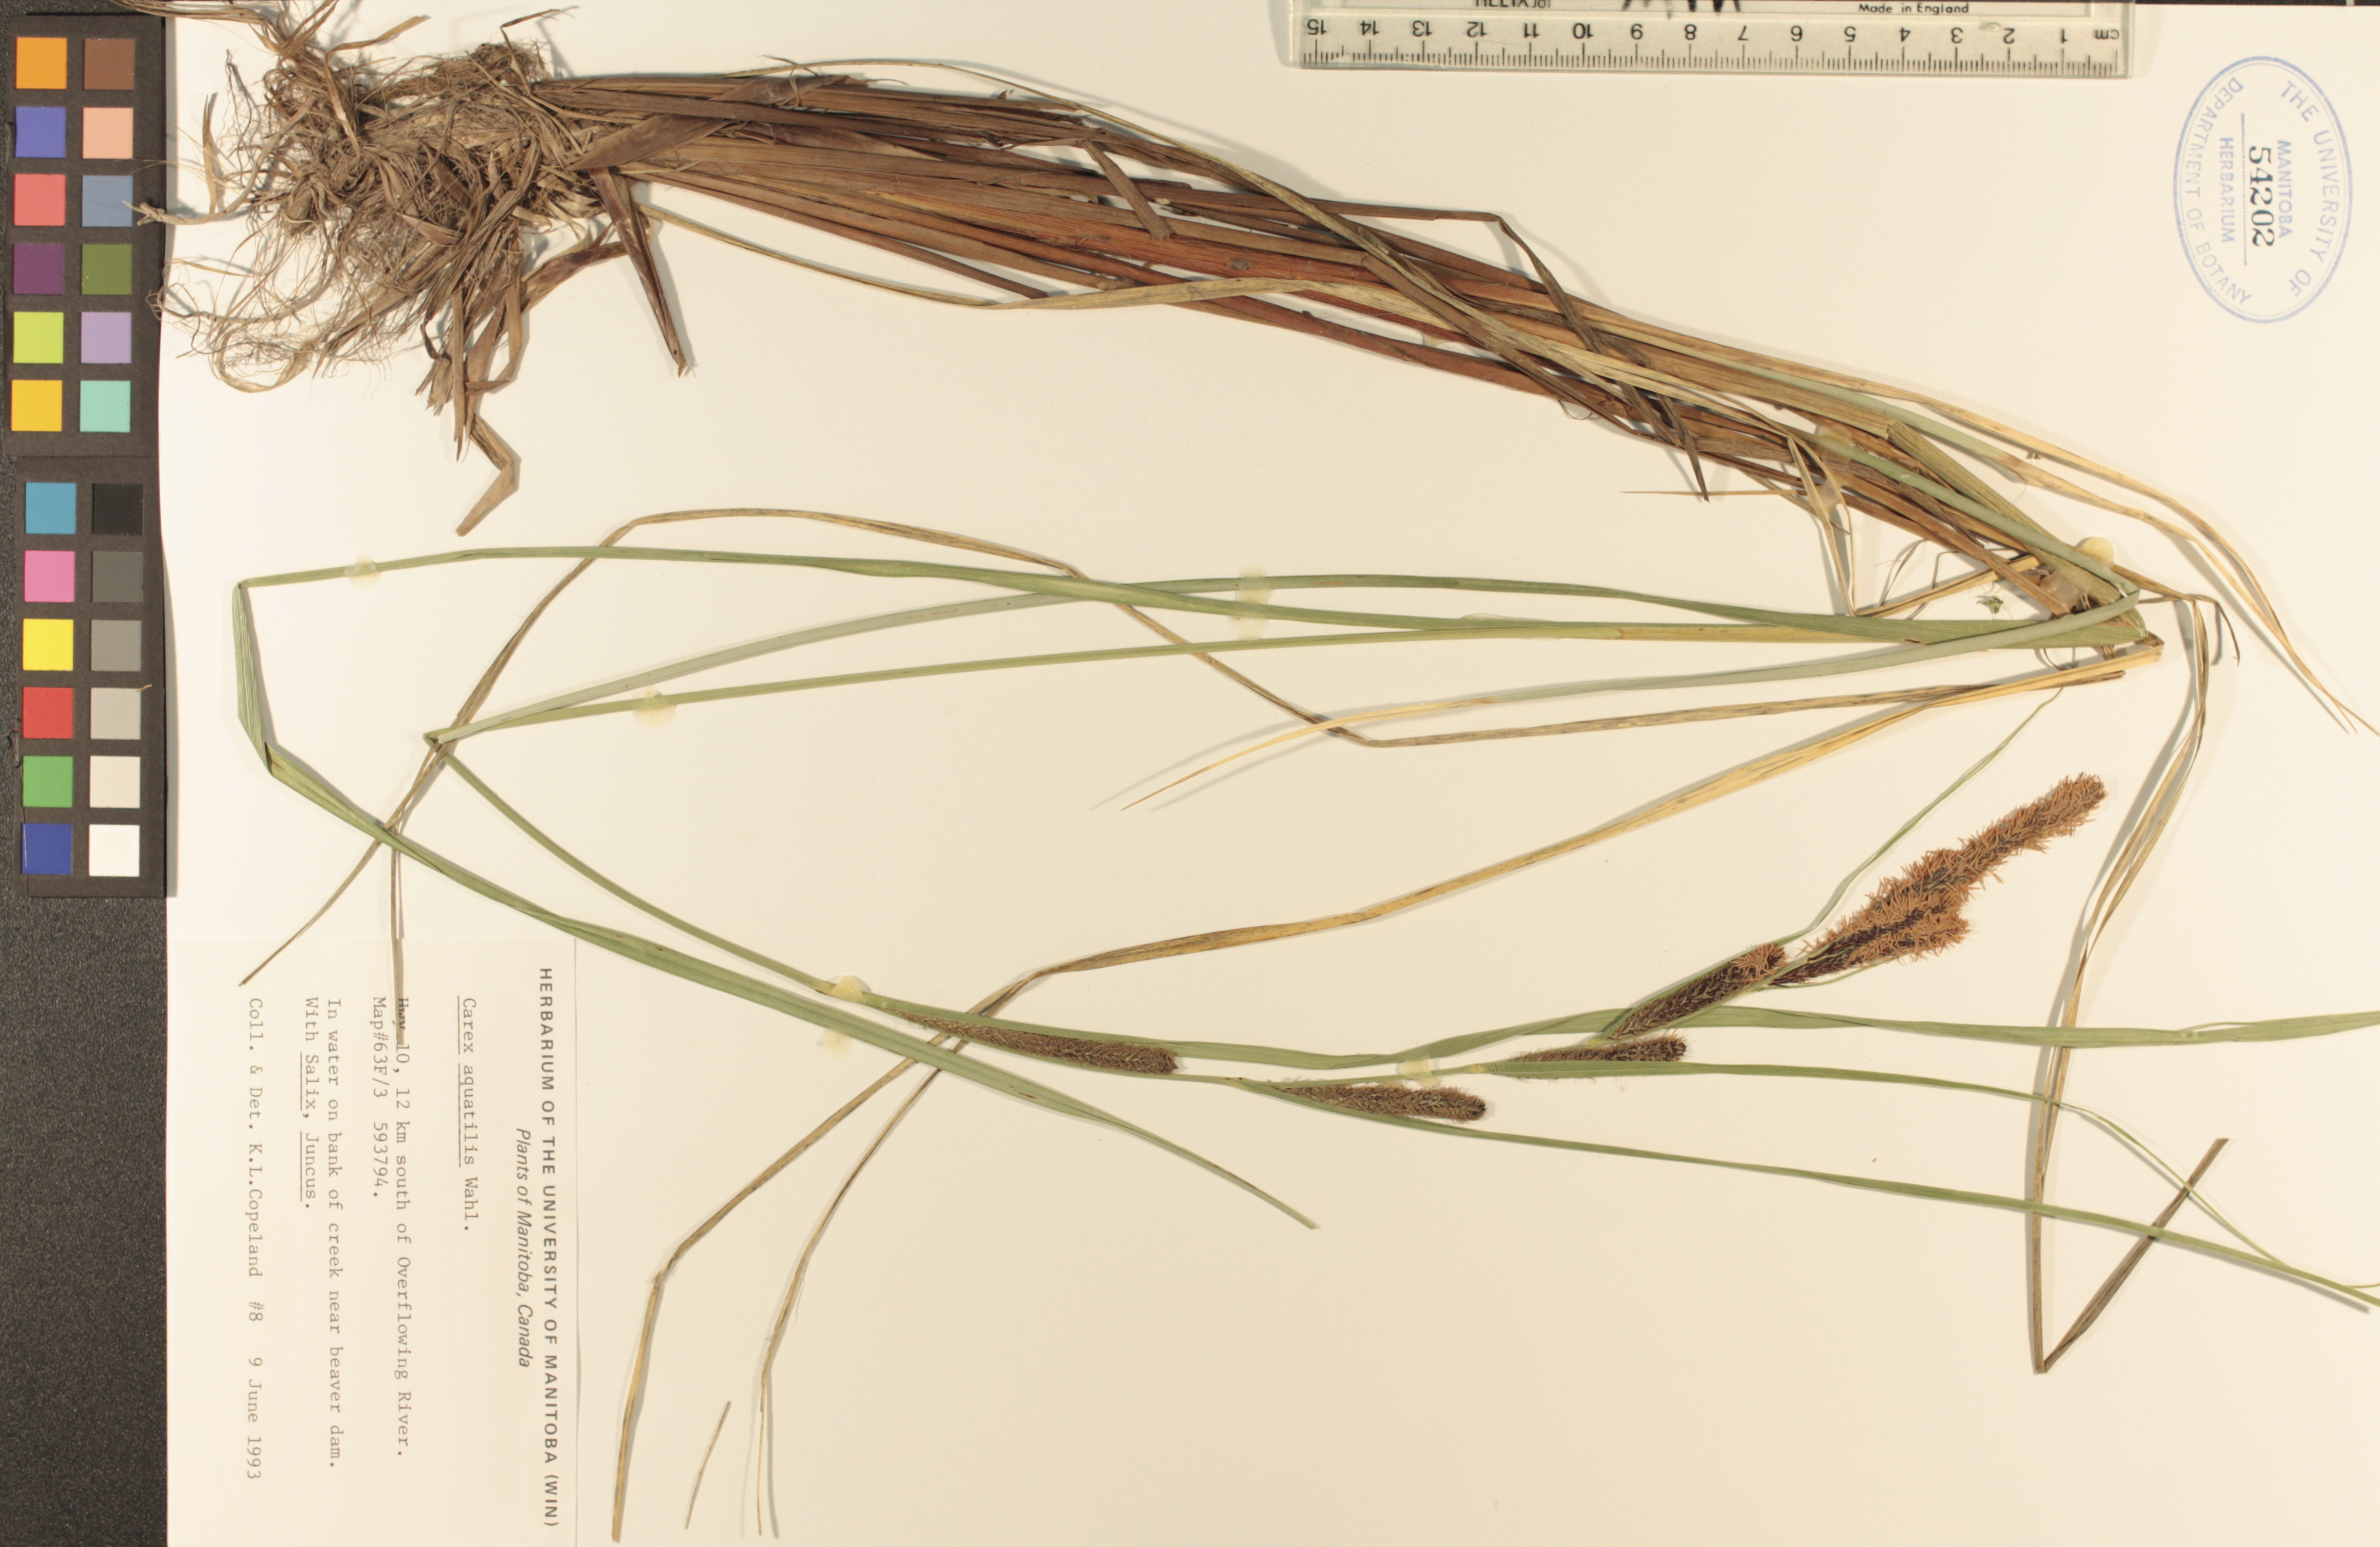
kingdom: Plantae
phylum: Tracheophyta
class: Liliopsida
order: Poales
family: Cyperaceae
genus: Carex
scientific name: Carex aquatilis
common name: Water sedge
